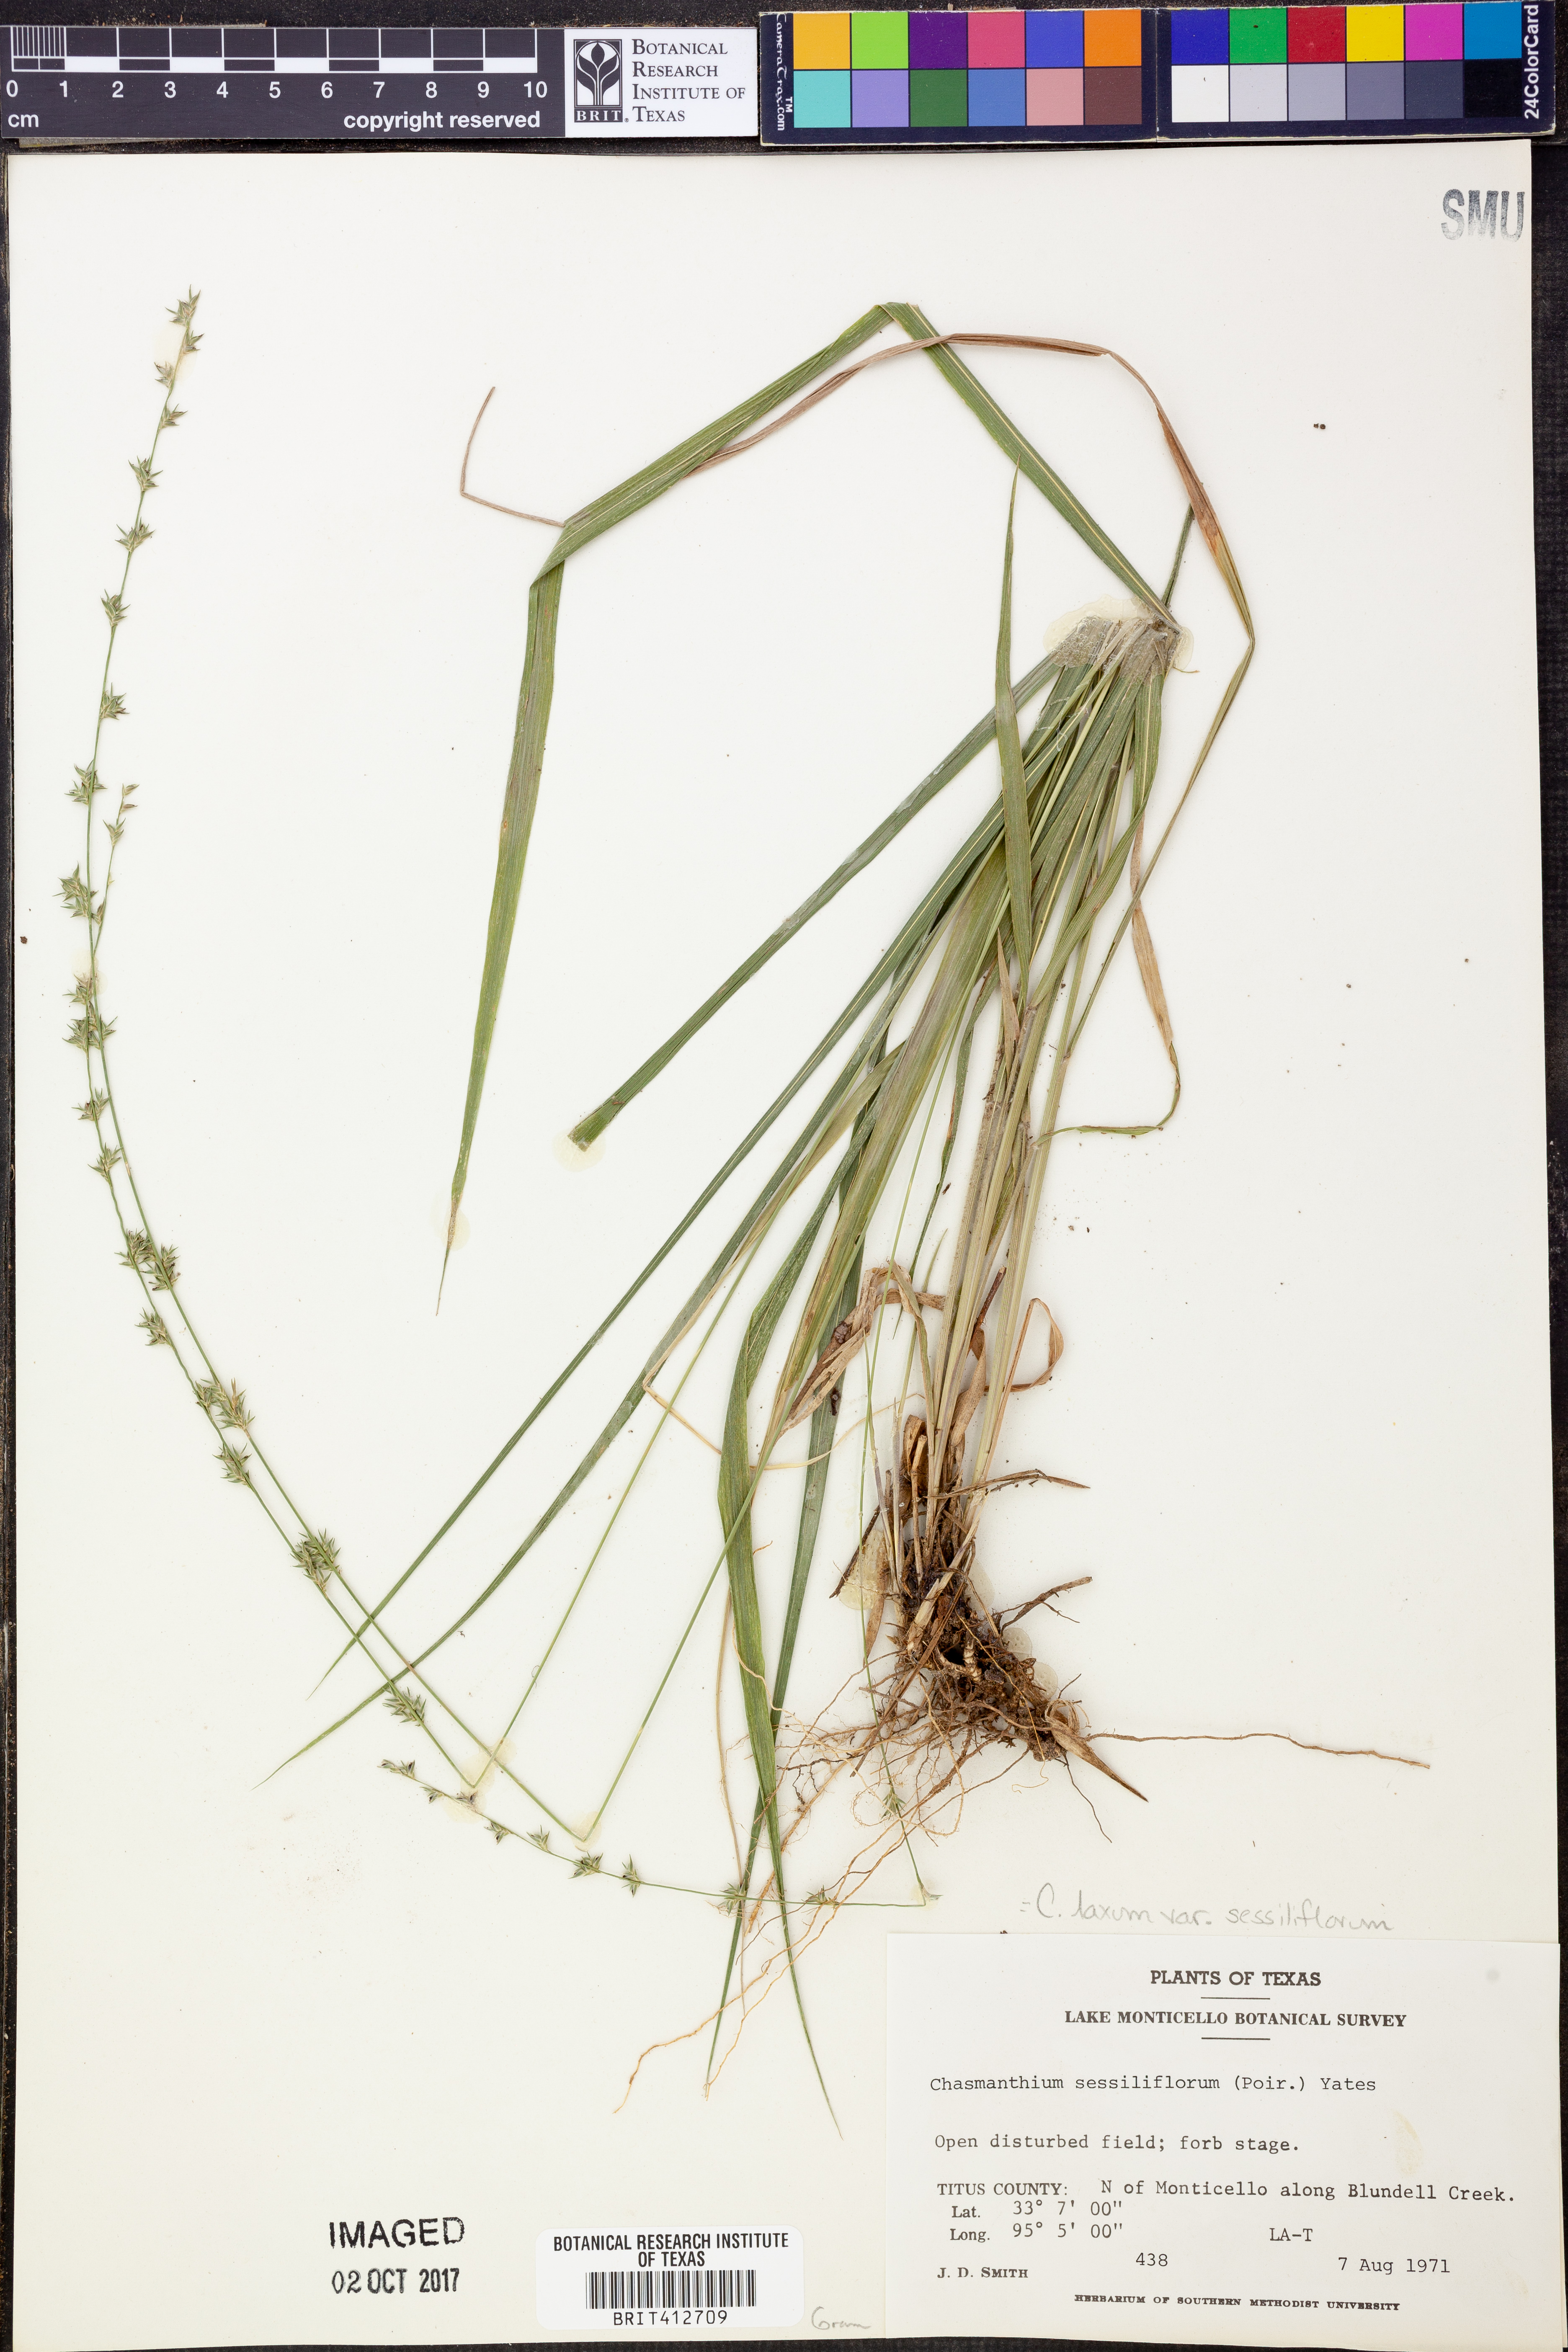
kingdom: Plantae
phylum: Tracheophyta
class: Liliopsida
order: Poales
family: Poaceae
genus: Chasmanthium
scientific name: Chasmanthium laxum
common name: Slender chasmanthium
